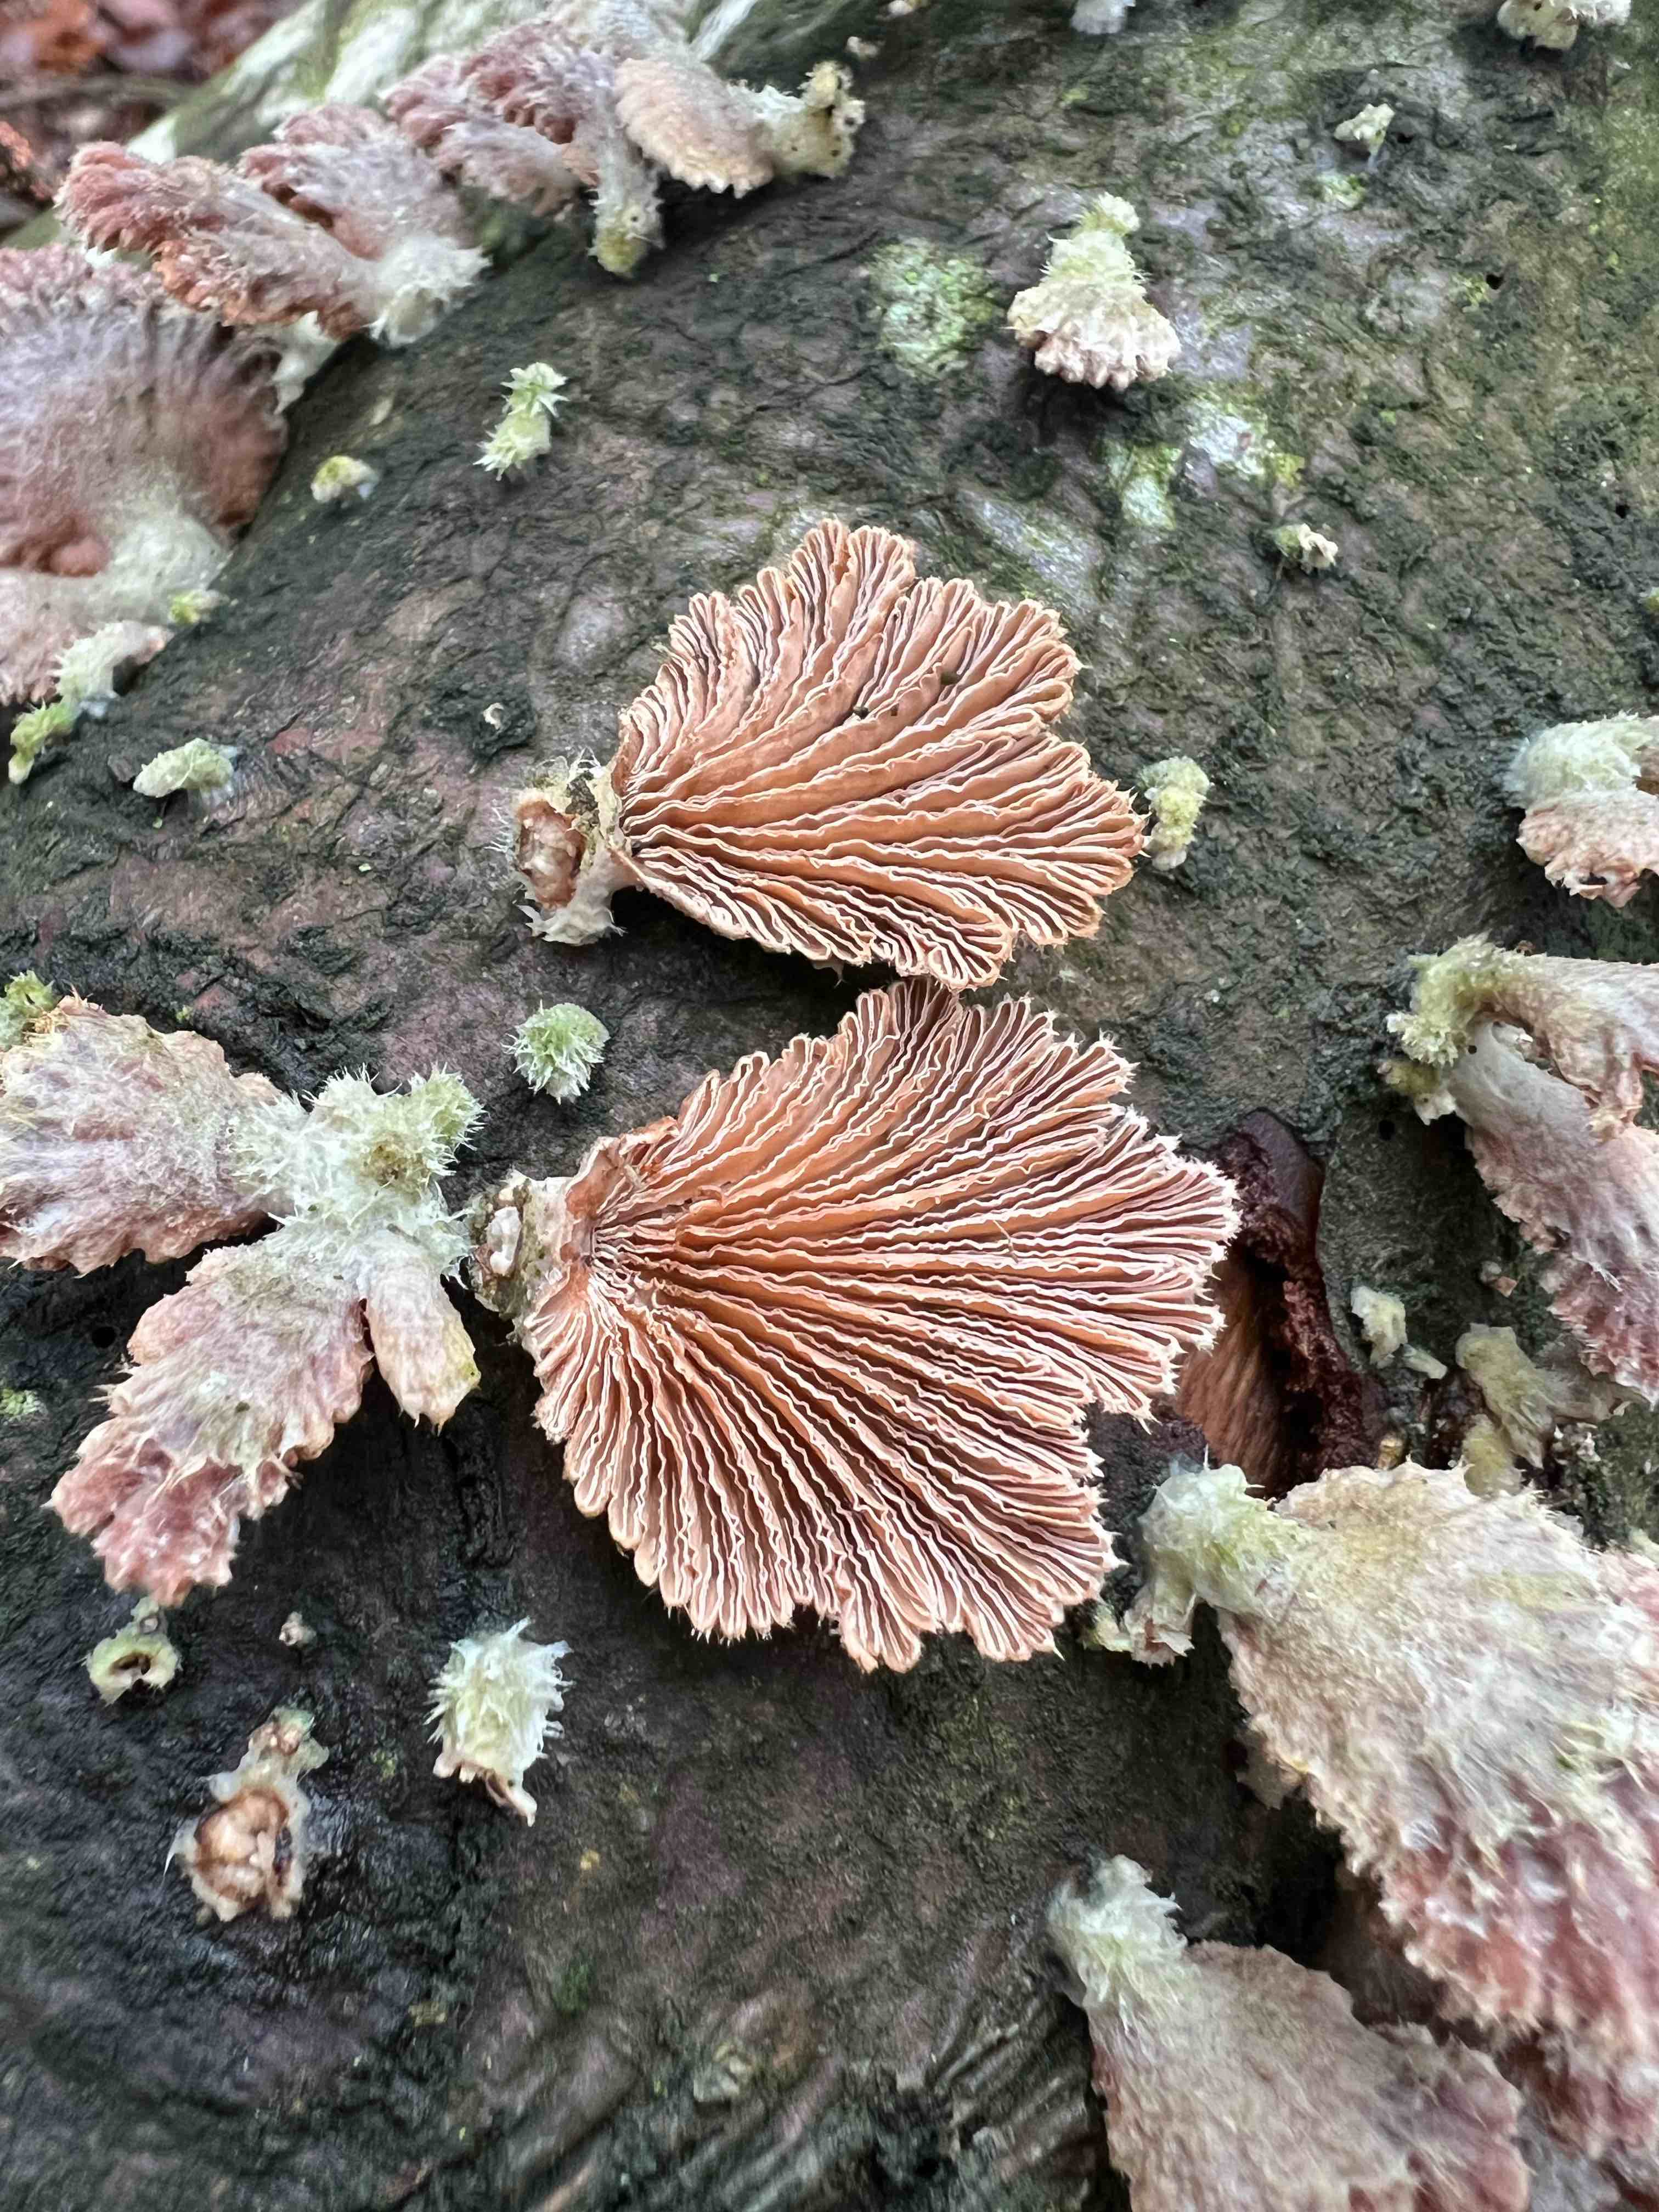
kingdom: Fungi
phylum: Basidiomycota
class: Agaricomycetes
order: Agaricales
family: Schizophyllaceae
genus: Schizophyllum
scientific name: Schizophyllum commune
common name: kløvblad
